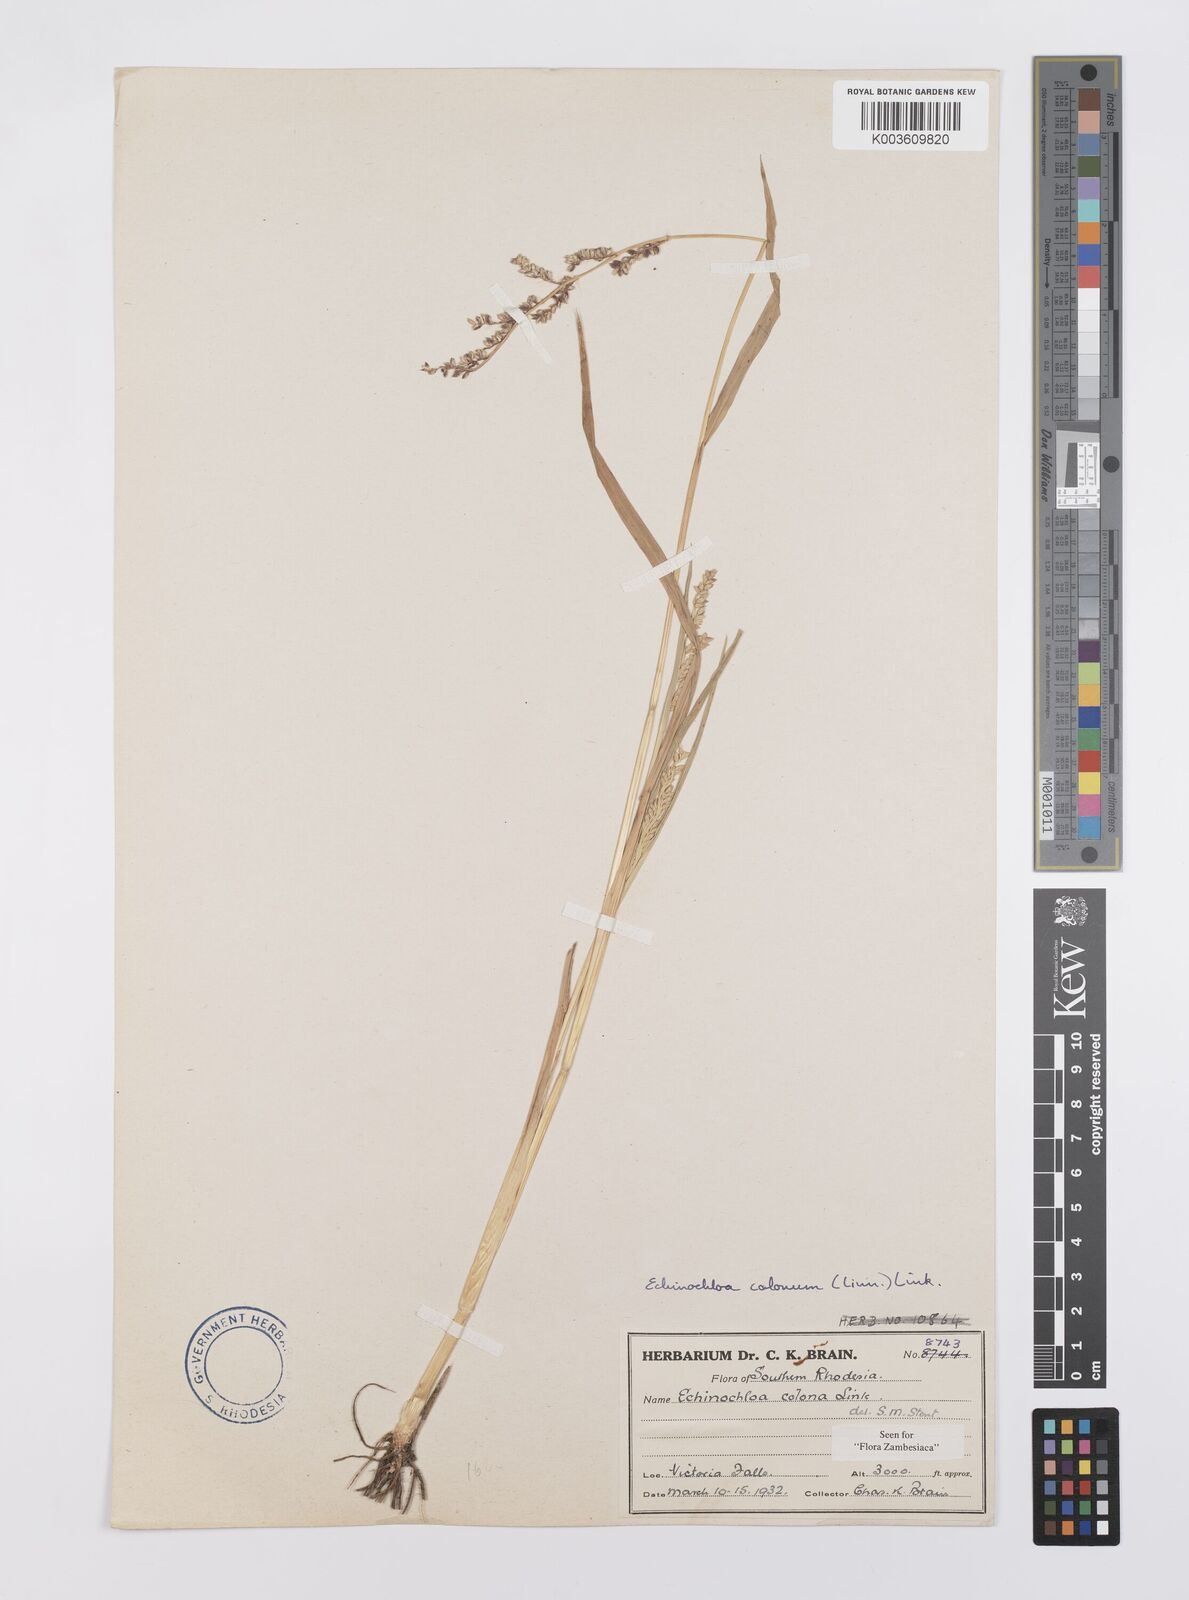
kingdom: Plantae
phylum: Tracheophyta
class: Liliopsida
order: Poales
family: Poaceae
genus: Echinochloa
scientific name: Echinochloa colonum
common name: Jungle rice
